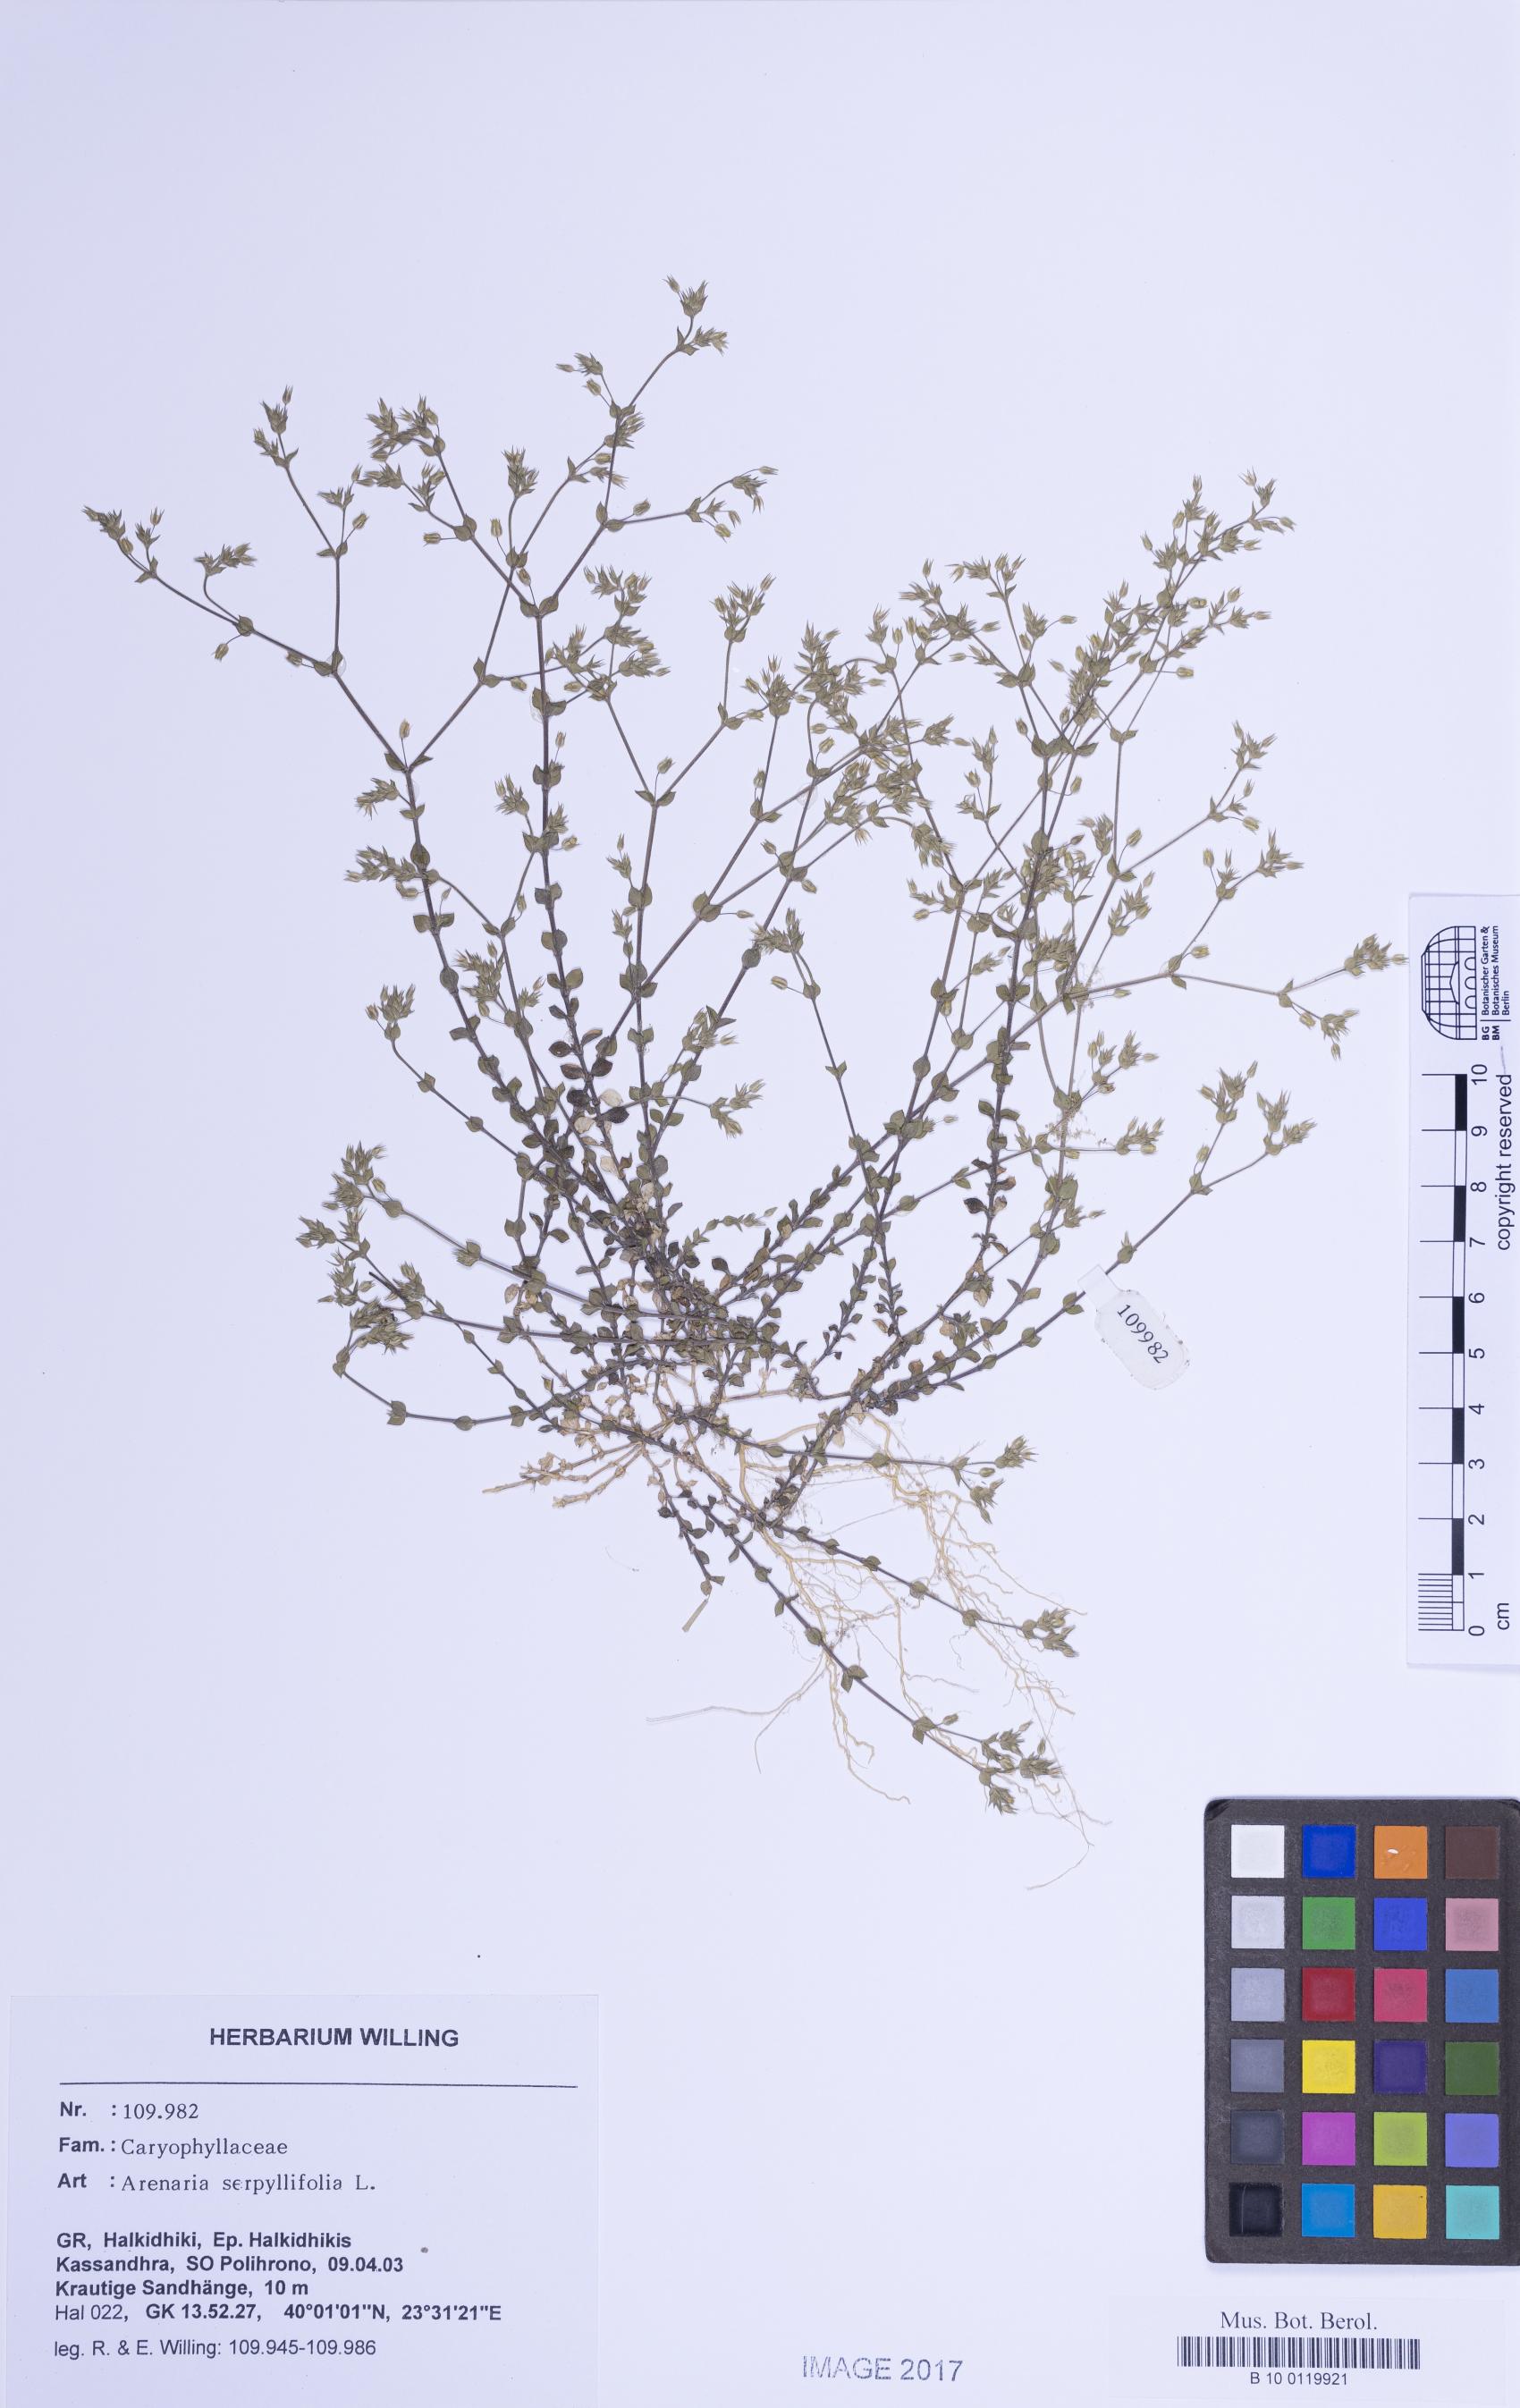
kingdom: Plantae
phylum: Tracheophyta
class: Magnoliopsida
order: Caryophyllales
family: Caryophyllaceae
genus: Arenaria
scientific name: Arenaria serpyllifolia
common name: Thyme-leaved sandwort
